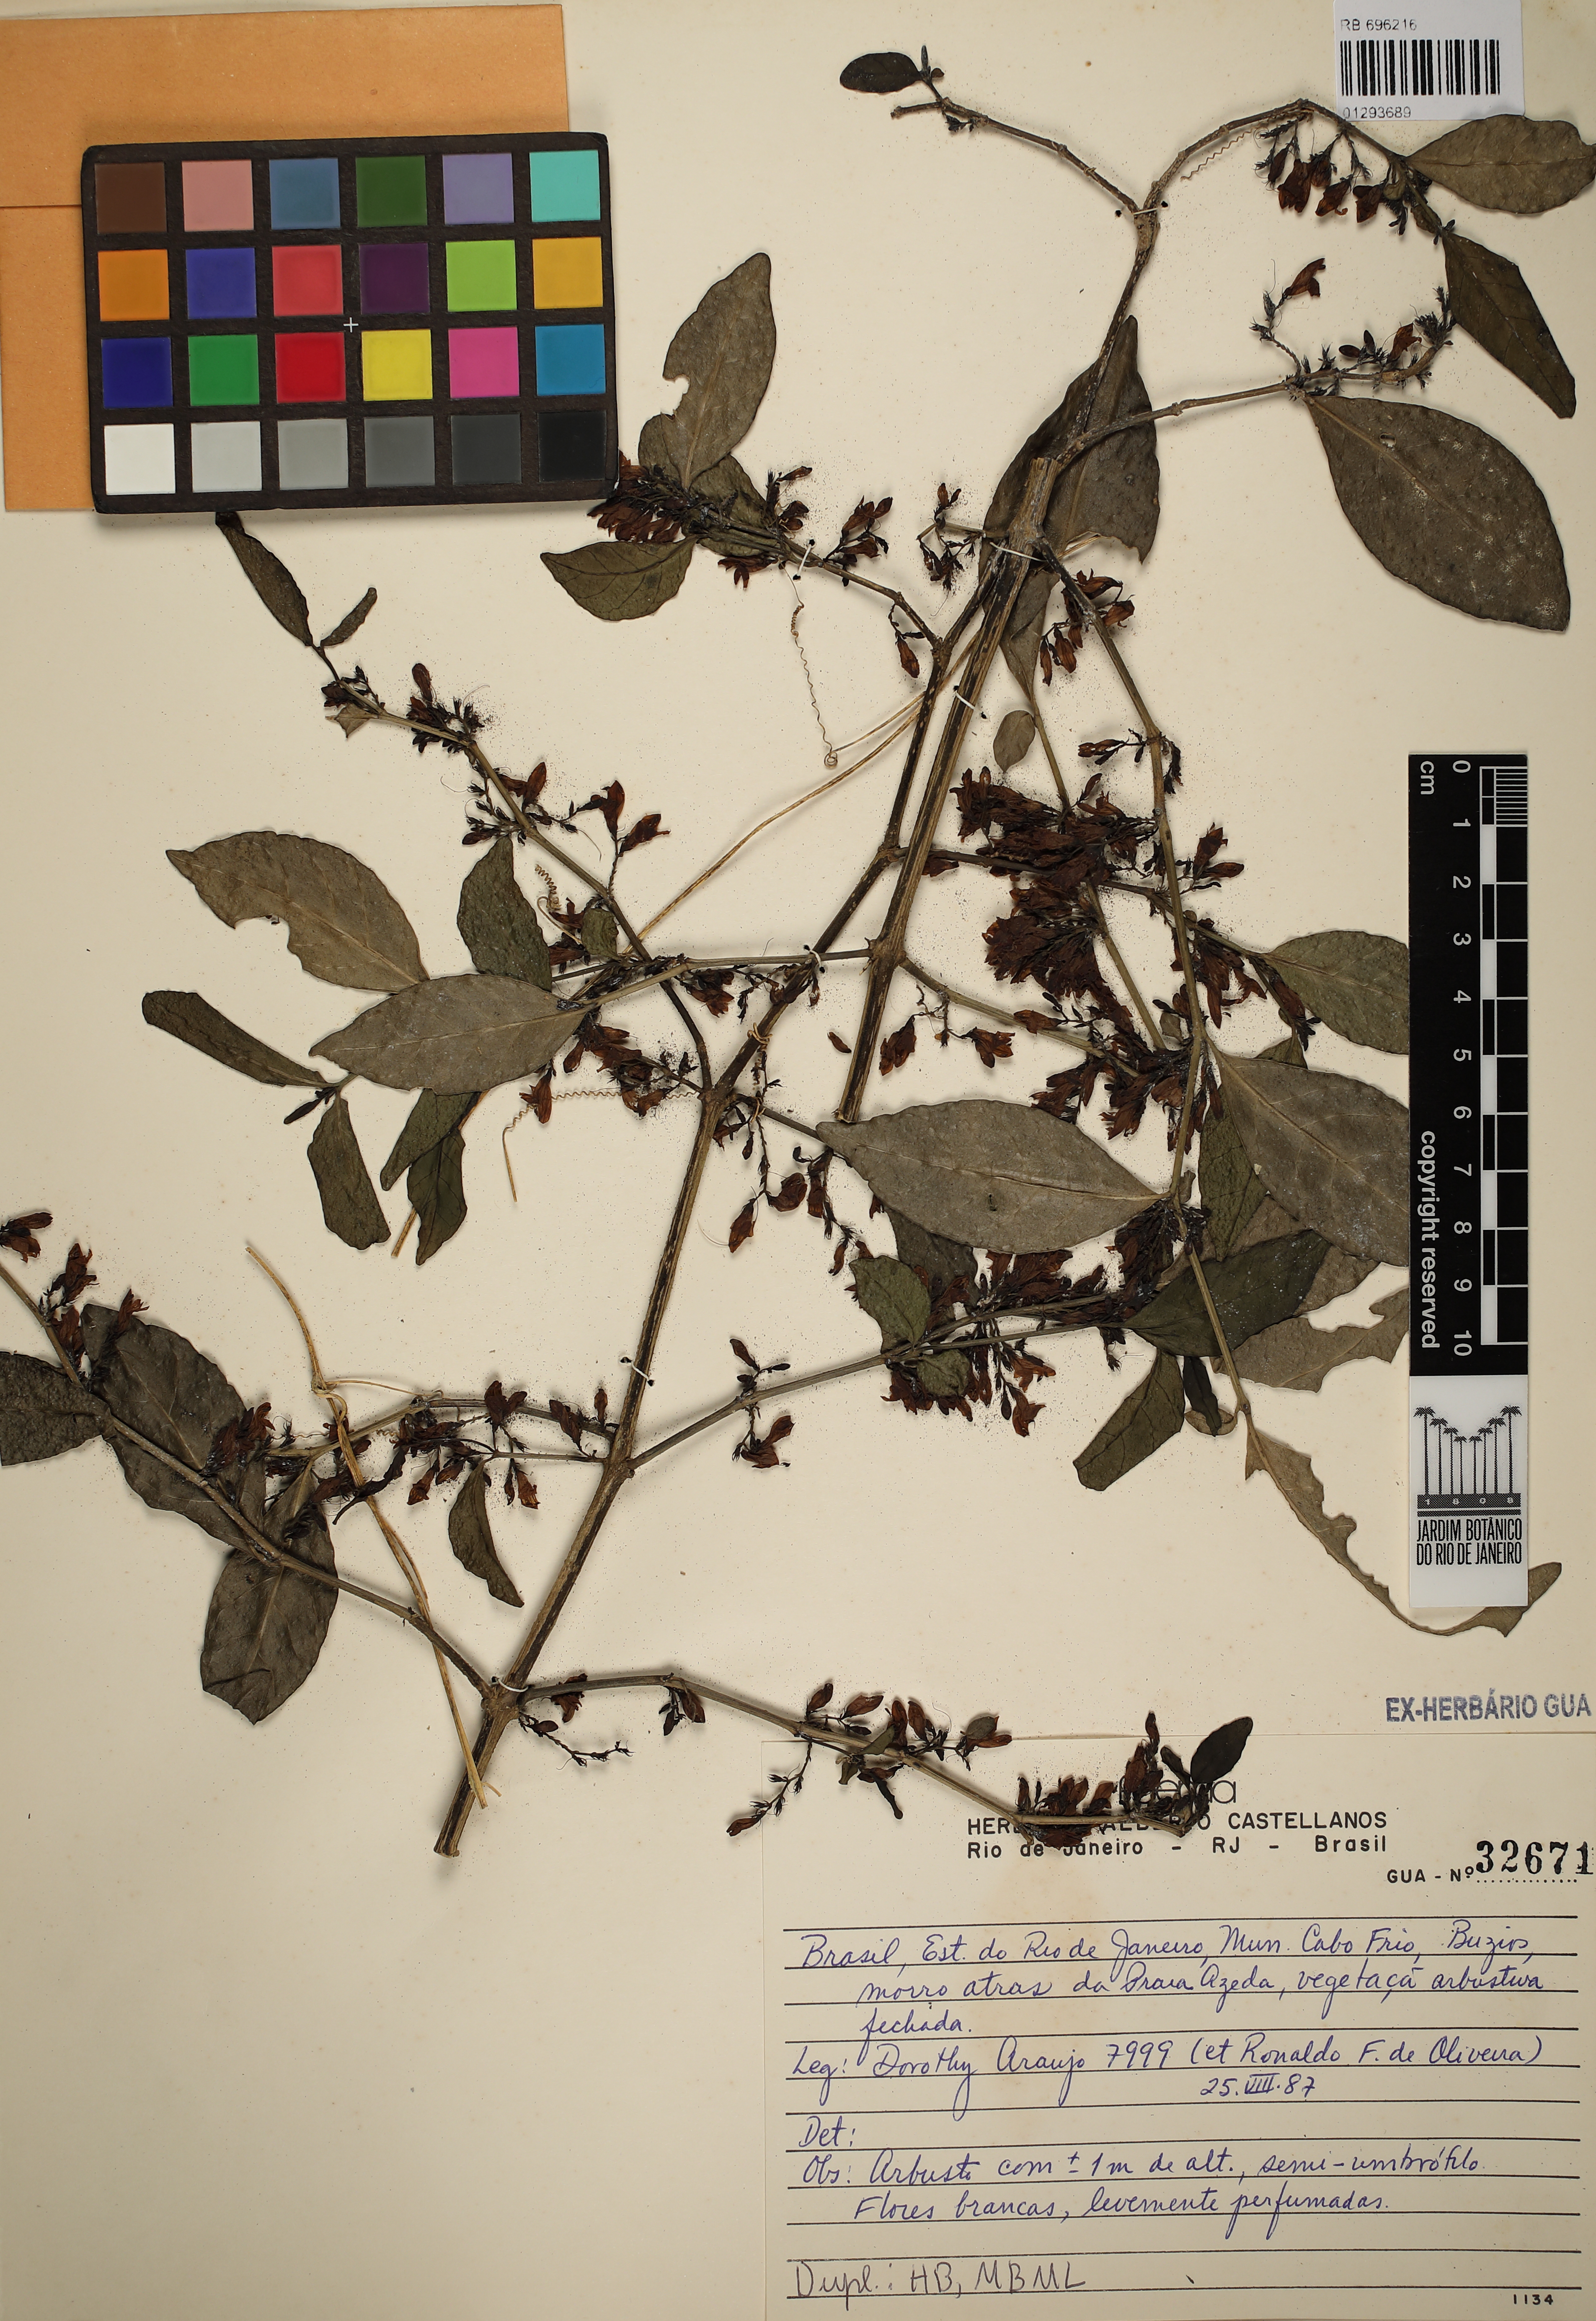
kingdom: Plantae
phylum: Tracheophyta
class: Magnoliopsida
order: Lamiales
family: Scrophulariaceae
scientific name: Scrophulariaceae
